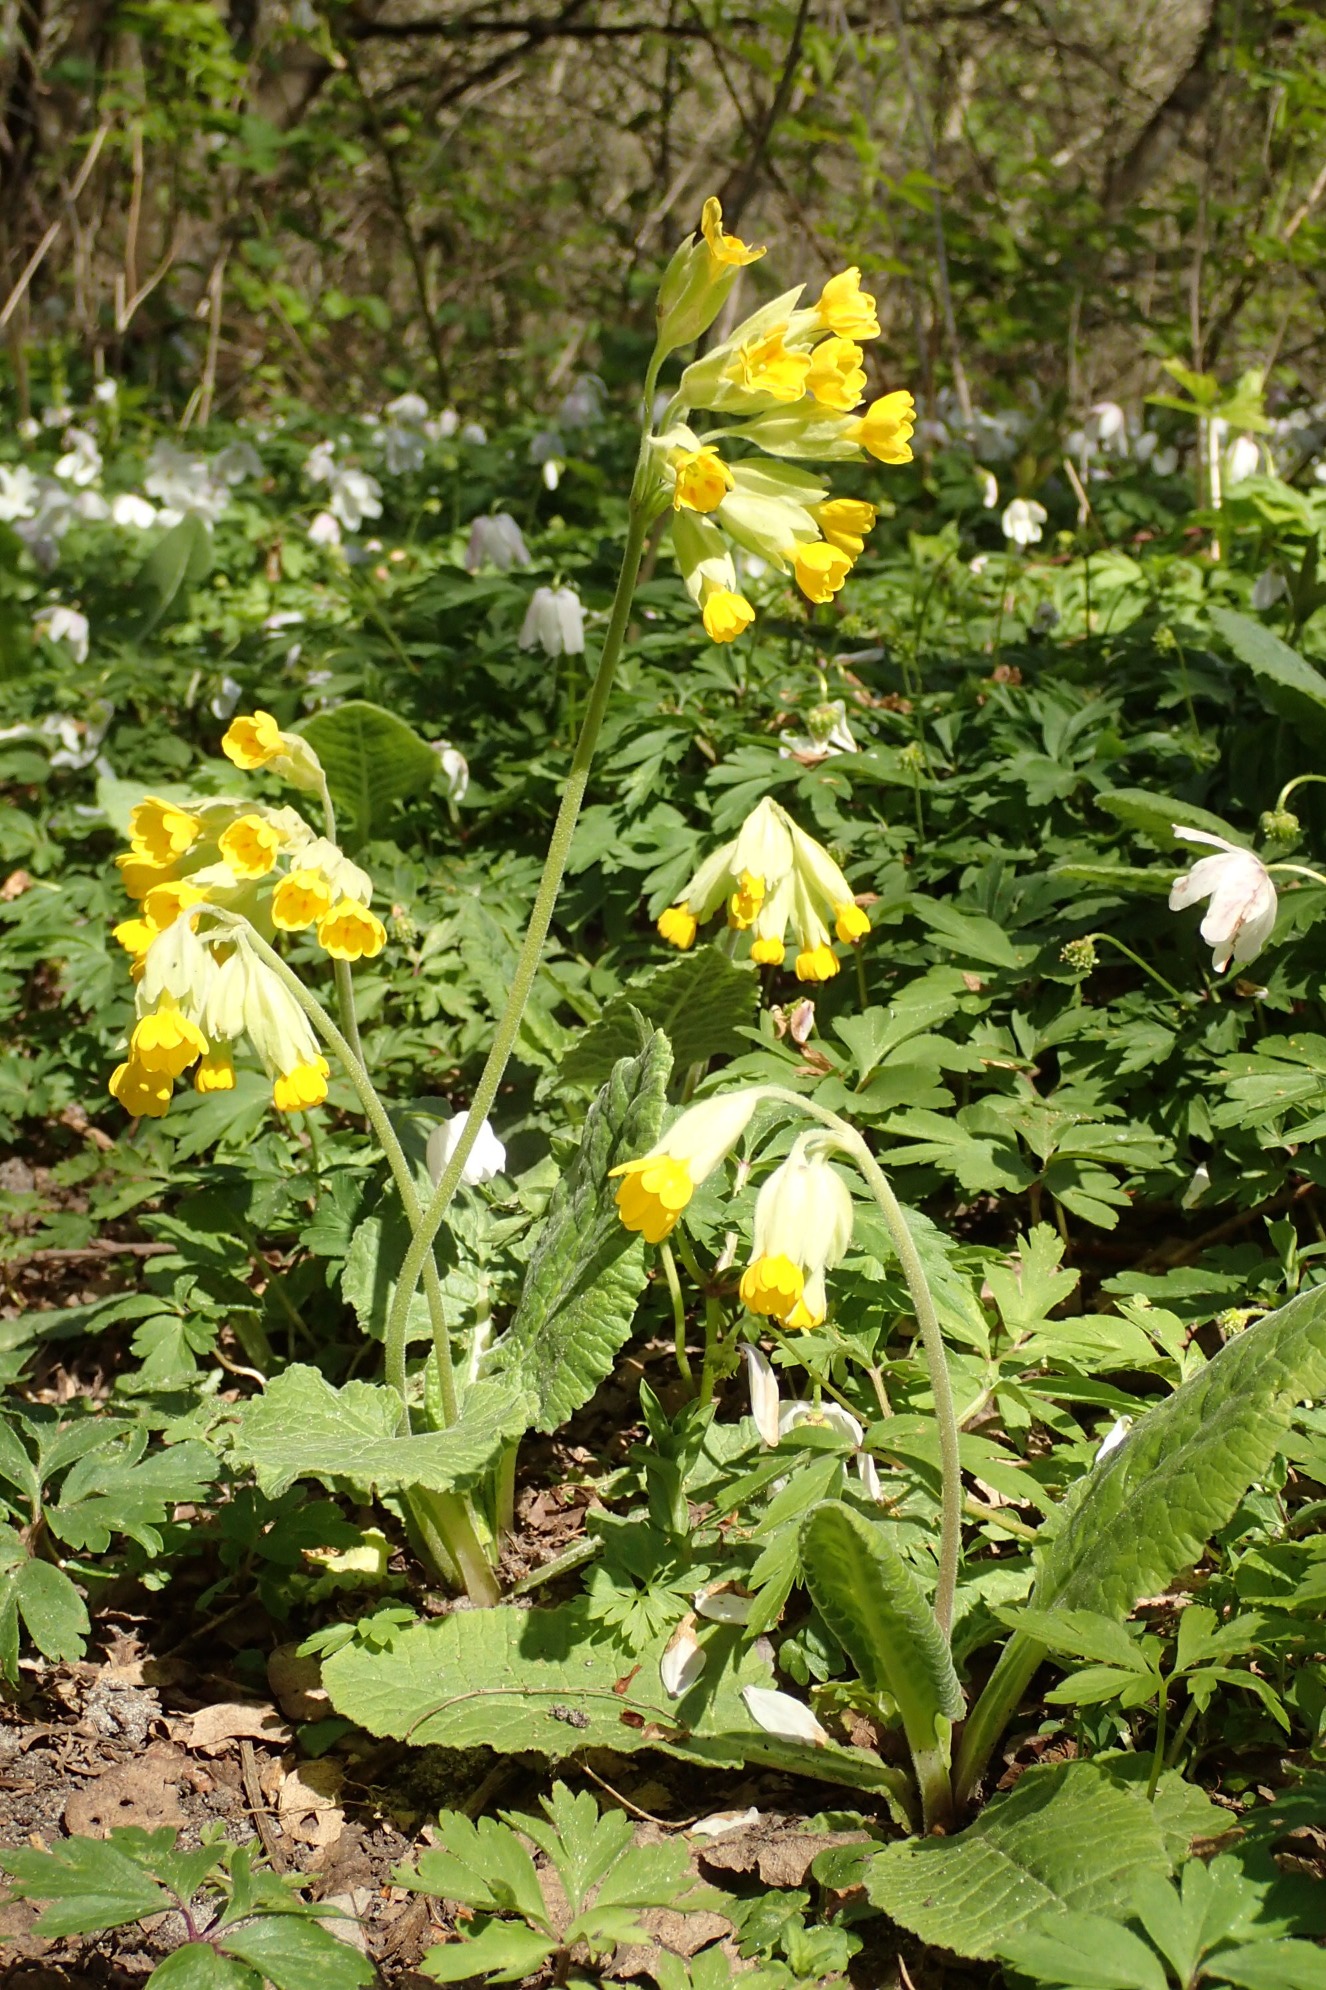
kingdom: Plantae
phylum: Tracheophyta
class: Magnoliopsida
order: Ericales
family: Primulaceae
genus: Primula
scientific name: Primula veris
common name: Hulkravet kodriver
